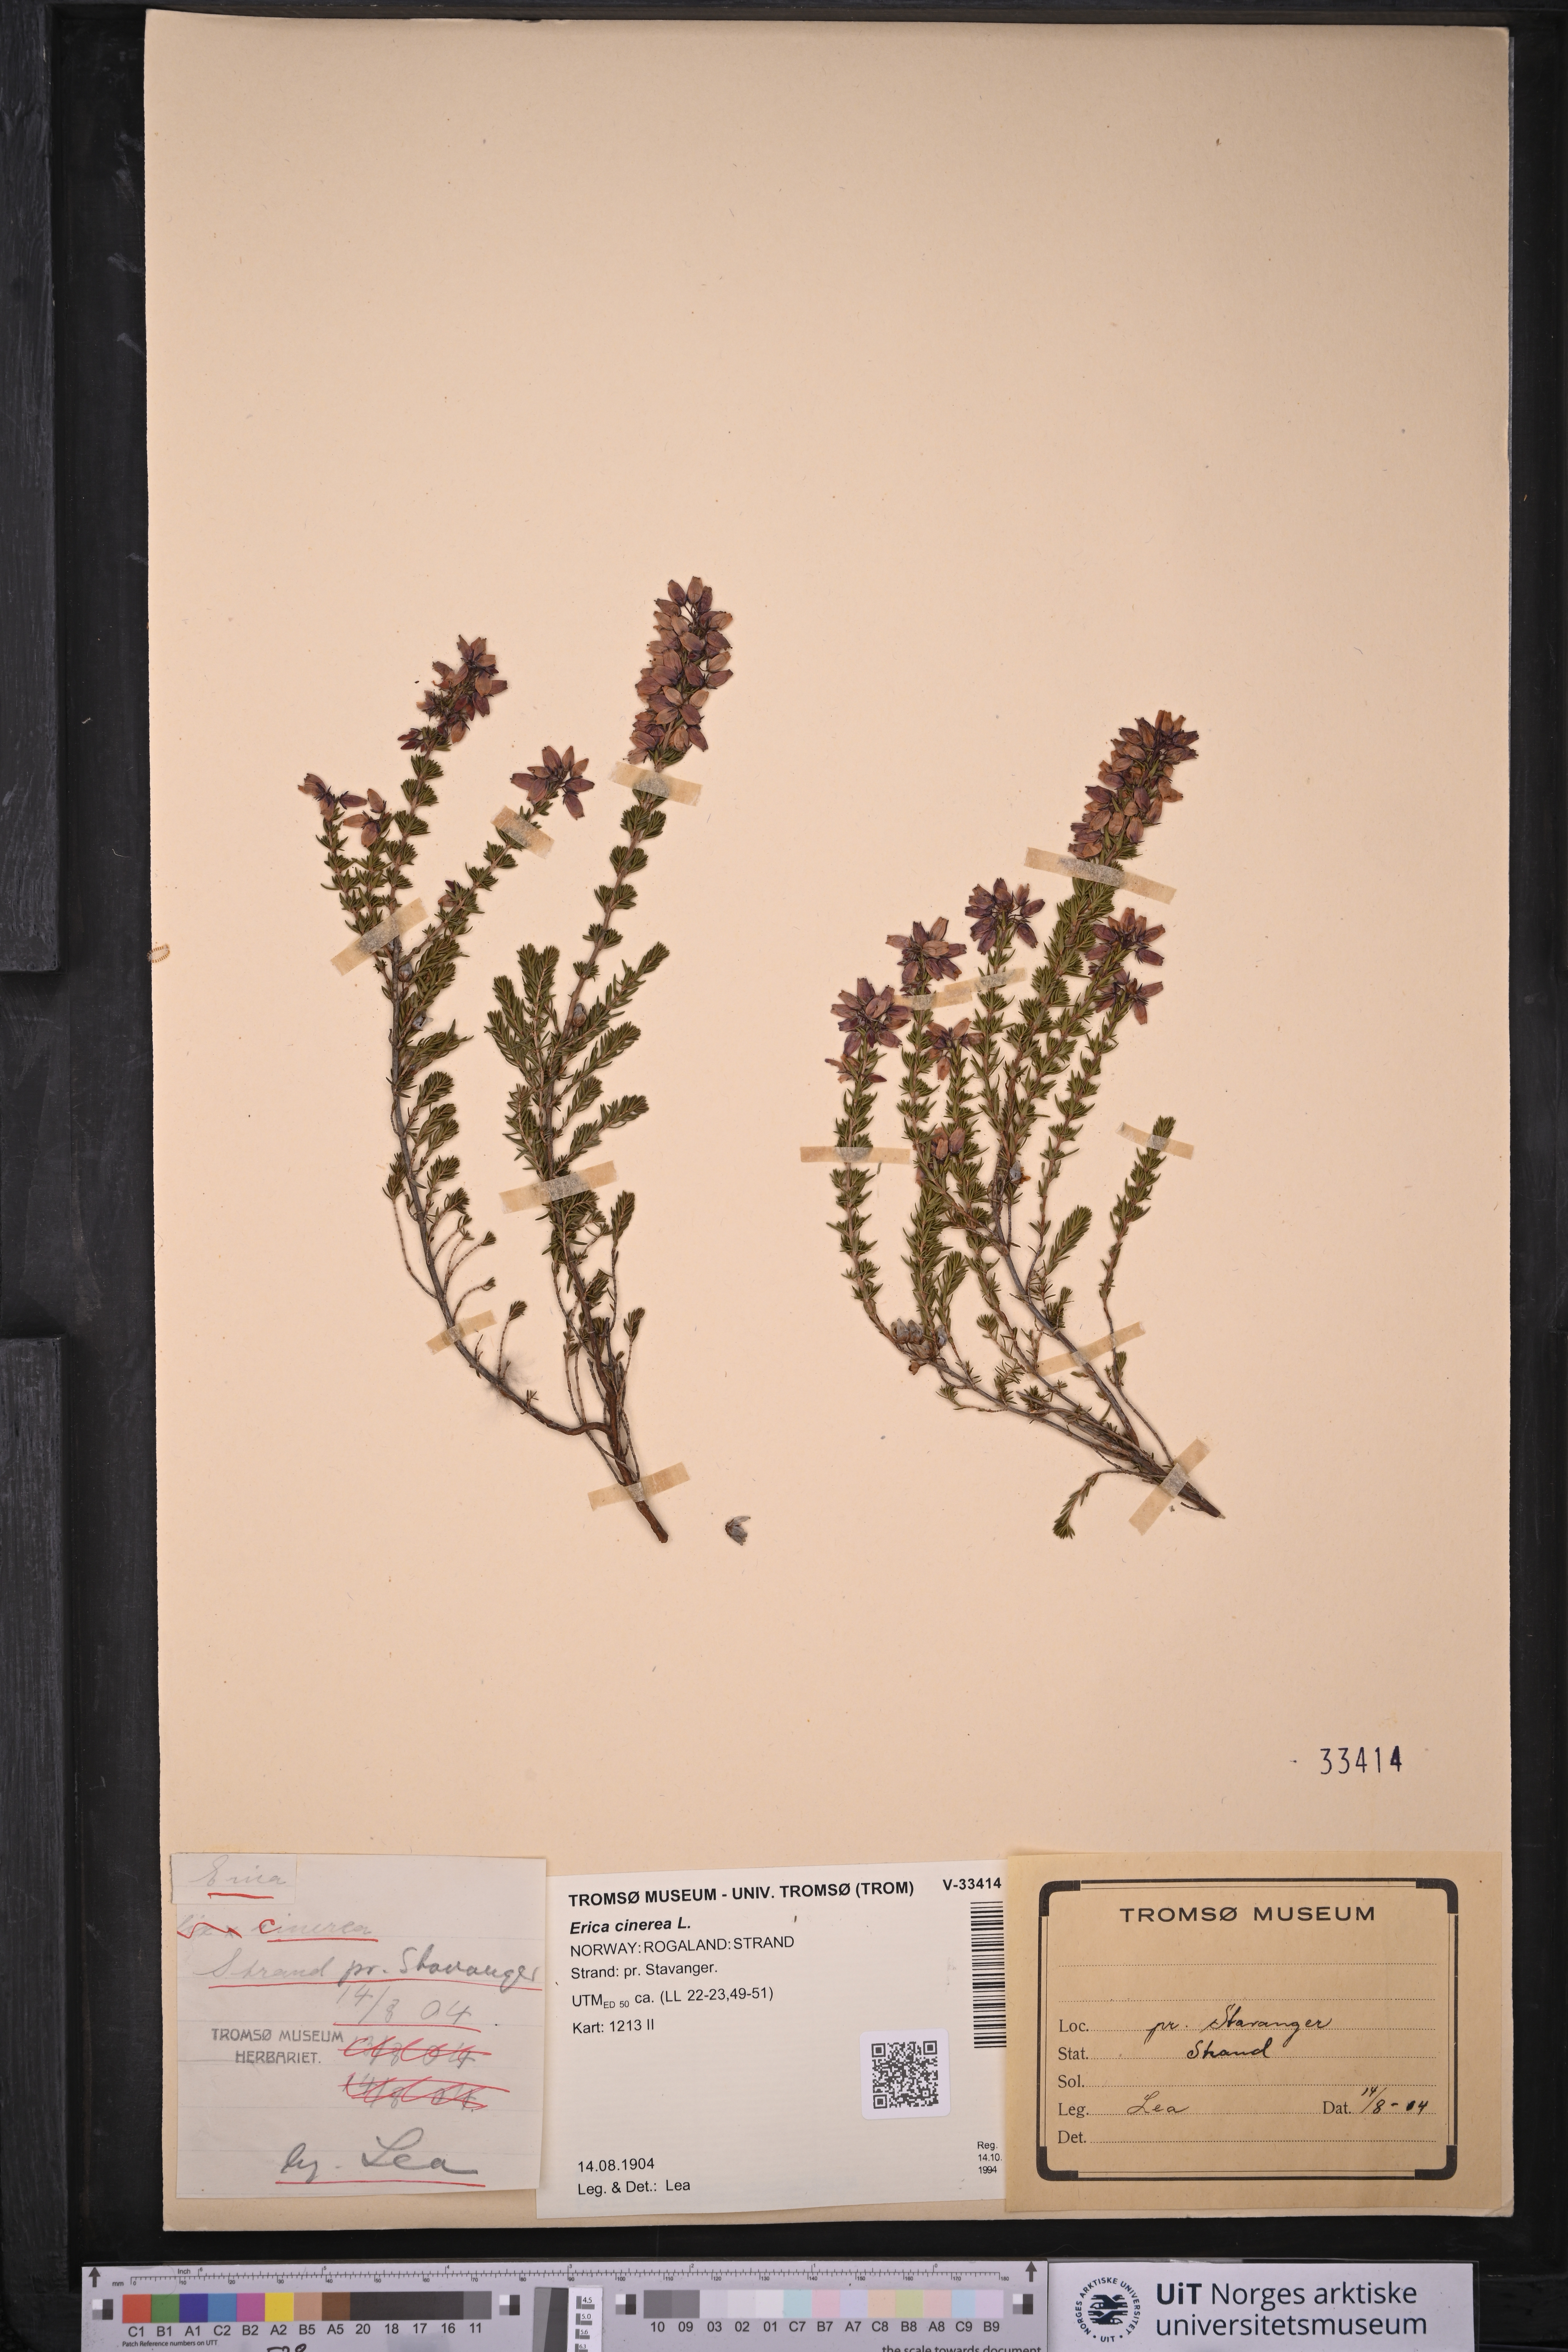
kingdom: Plantae
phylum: Tracheophyta
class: Magnoliopsida
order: Ericales
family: Ericaceae
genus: Erica
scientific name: Erica cinerea
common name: Bell heather
